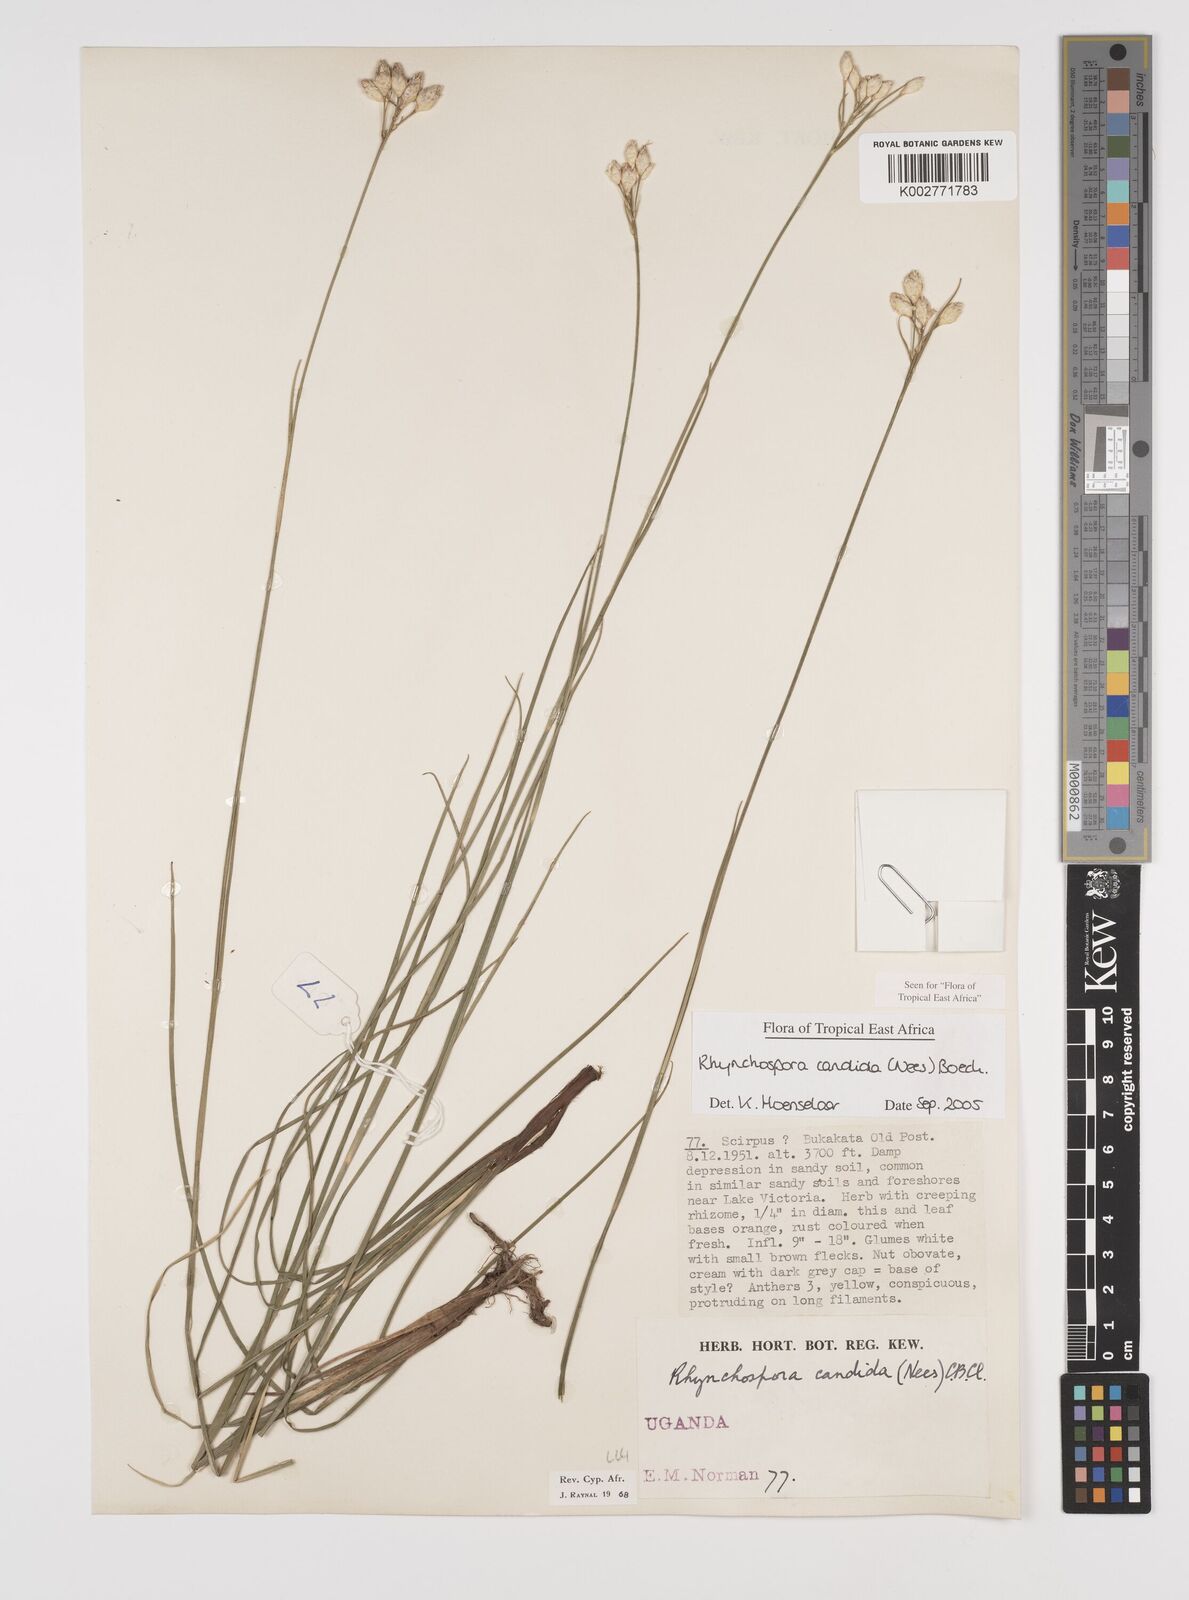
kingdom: Plantae
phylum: Tracheophyta
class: Liliopsida
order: Poales
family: Cyperaceae
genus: Rhynchospora
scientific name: Rhynchospora candida
